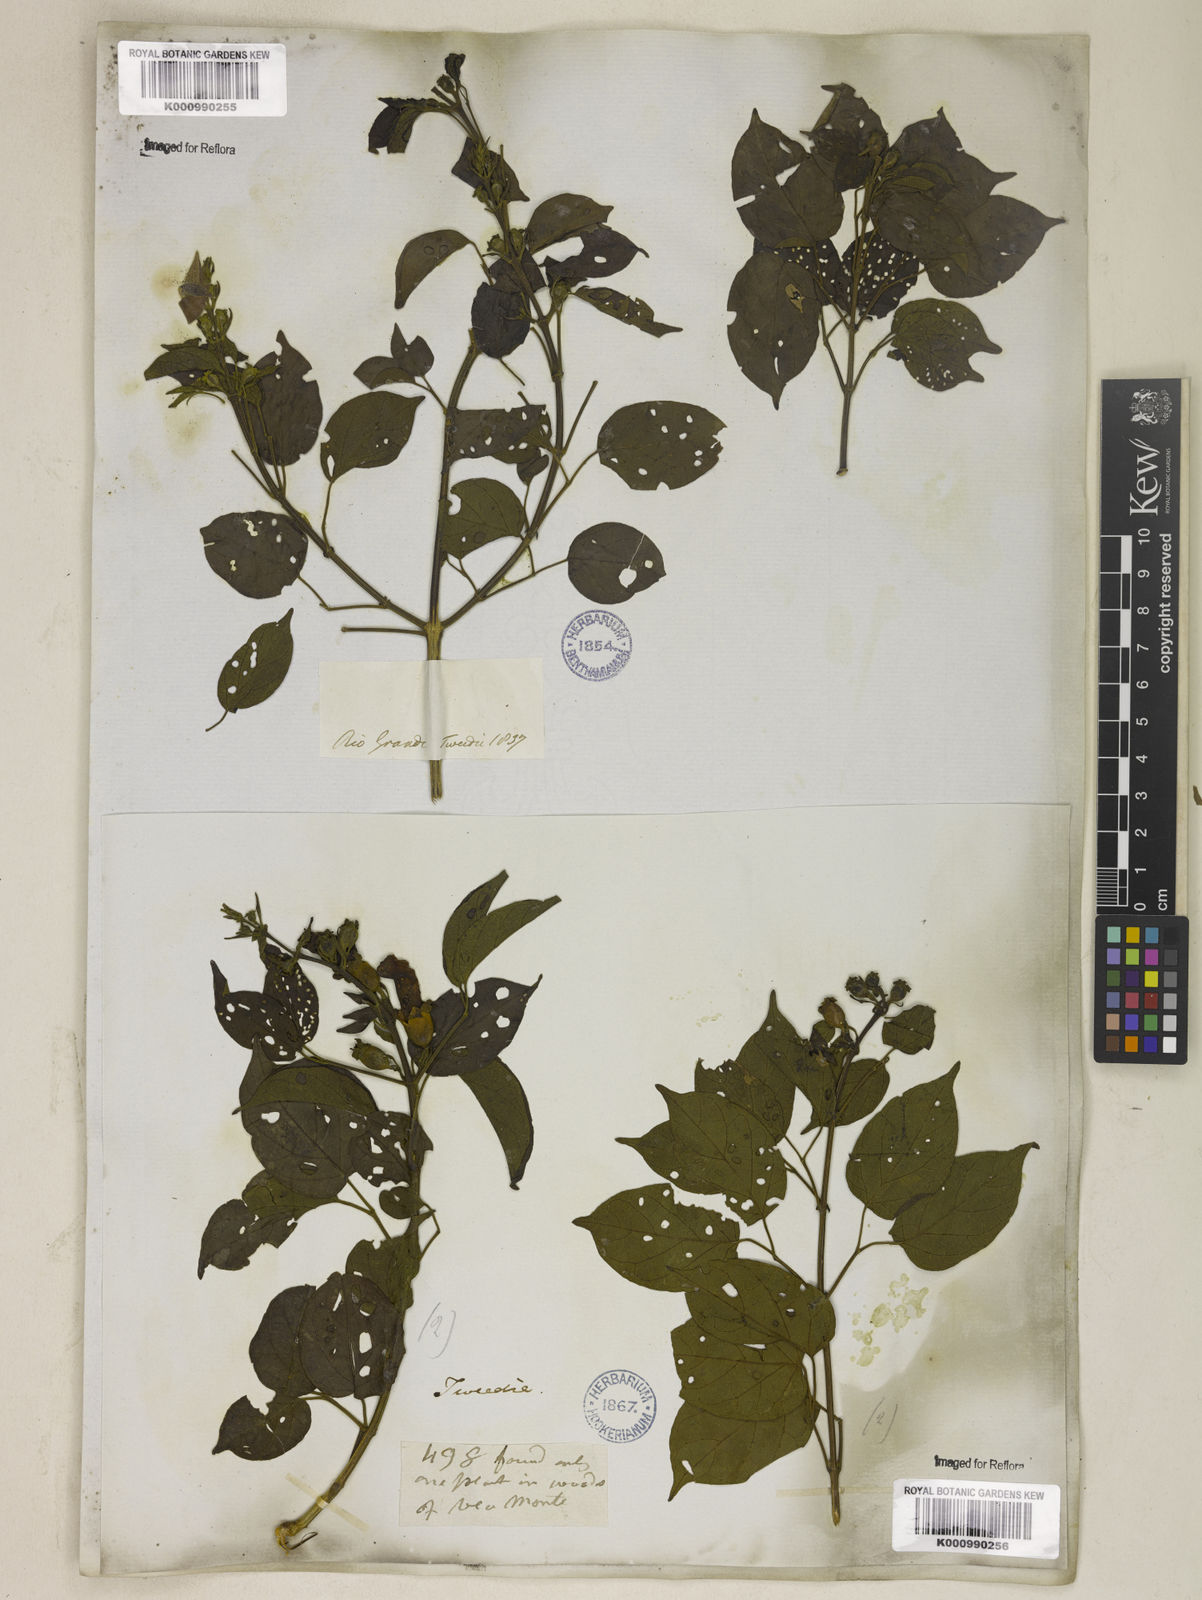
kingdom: Plantae
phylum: Tracheophyta
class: Magnoliopsida
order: Lamiales
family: Bignoniaceae
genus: Amphilophium
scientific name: Amphilophium paniculatum
